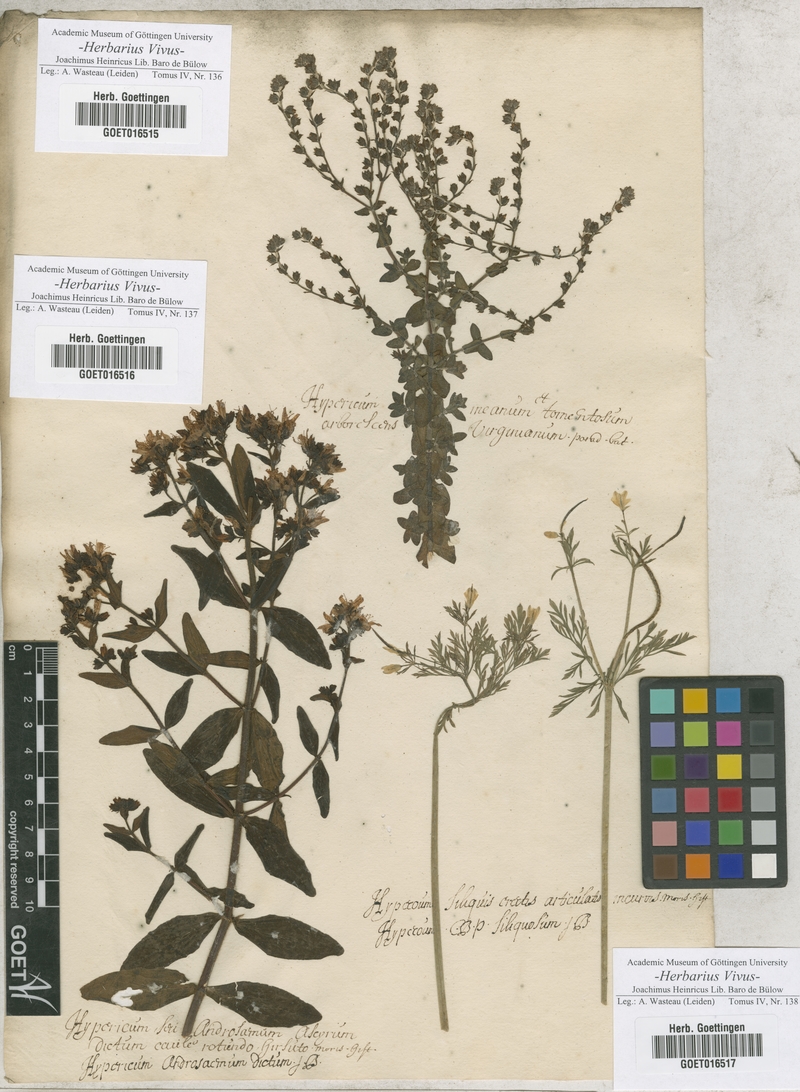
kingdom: Plantae
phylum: Tracheophyta
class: Magnoliopsida
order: Malpighiales
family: Hypericaceae
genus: Hypericum
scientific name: Hypericum
